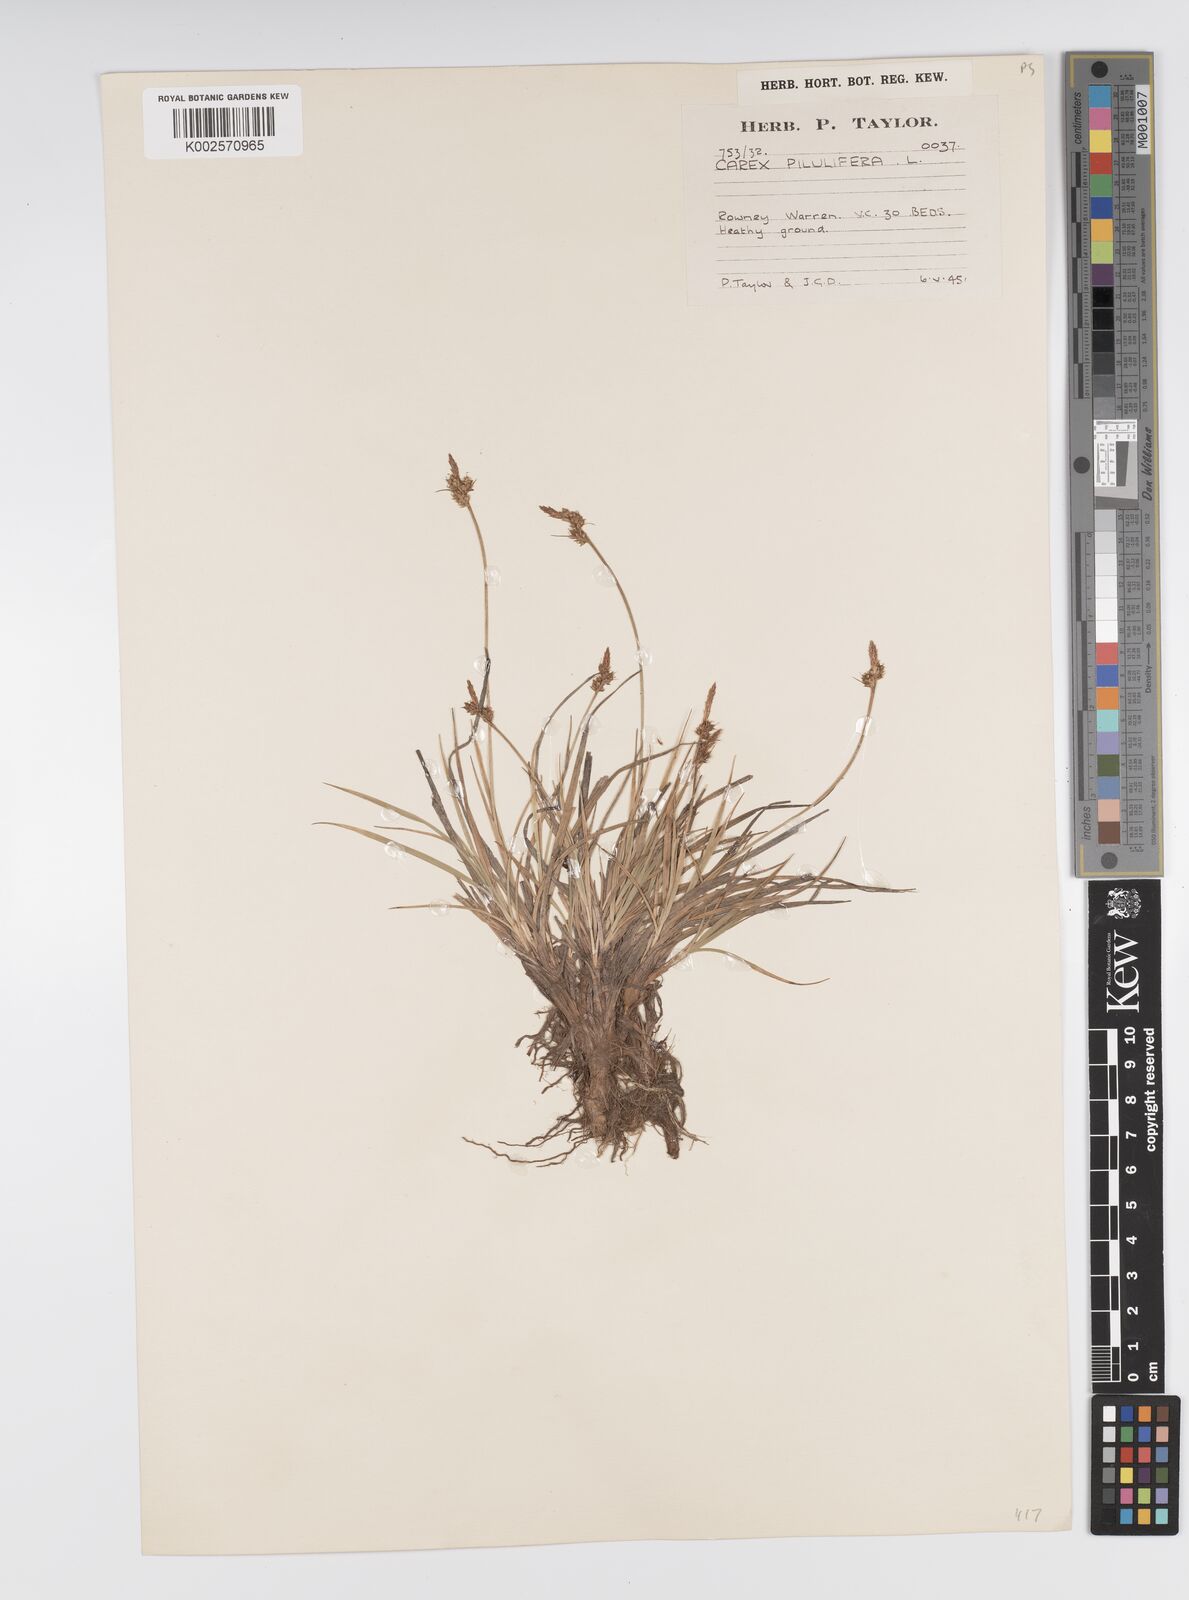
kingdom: Plantae
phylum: Tracheophyta
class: Liliopsida
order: Poales
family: Cyperaceae
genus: Carex
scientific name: Carex pilulifera
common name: Pill sedge
